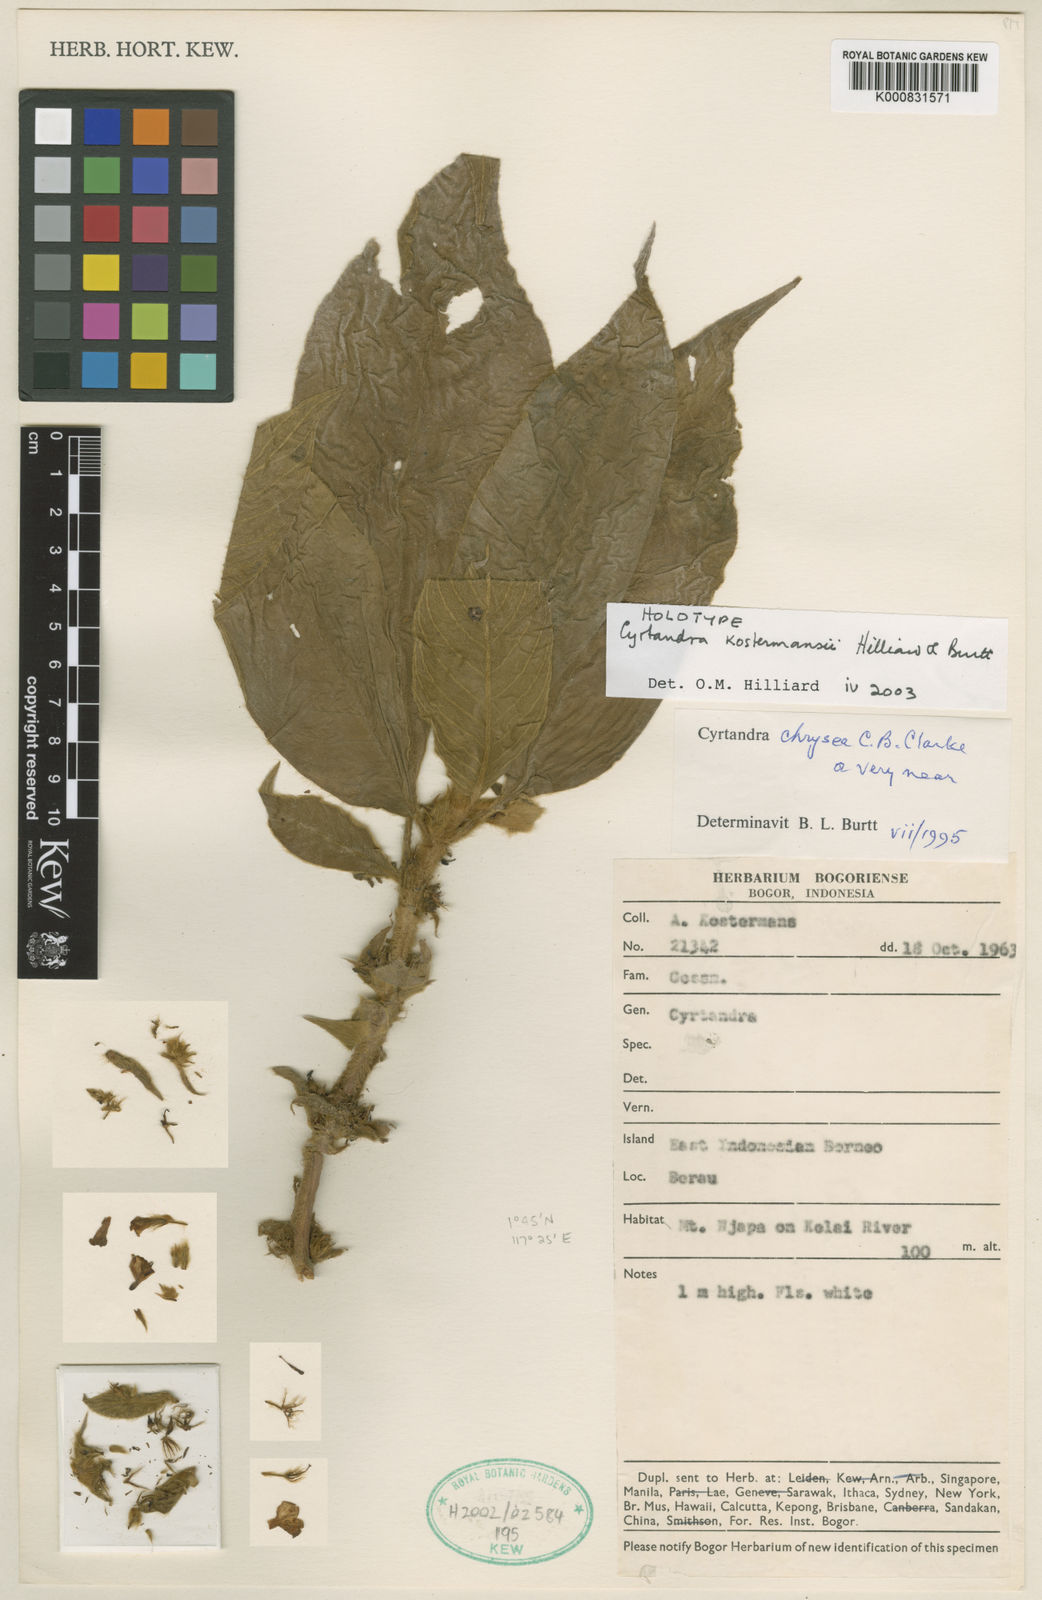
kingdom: Plantae
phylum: Tracheophyta
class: Magnoliopsida
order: Lamiales
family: Gesneriaceae
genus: Cyrtandra
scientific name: Cyrtandra kostermansii
